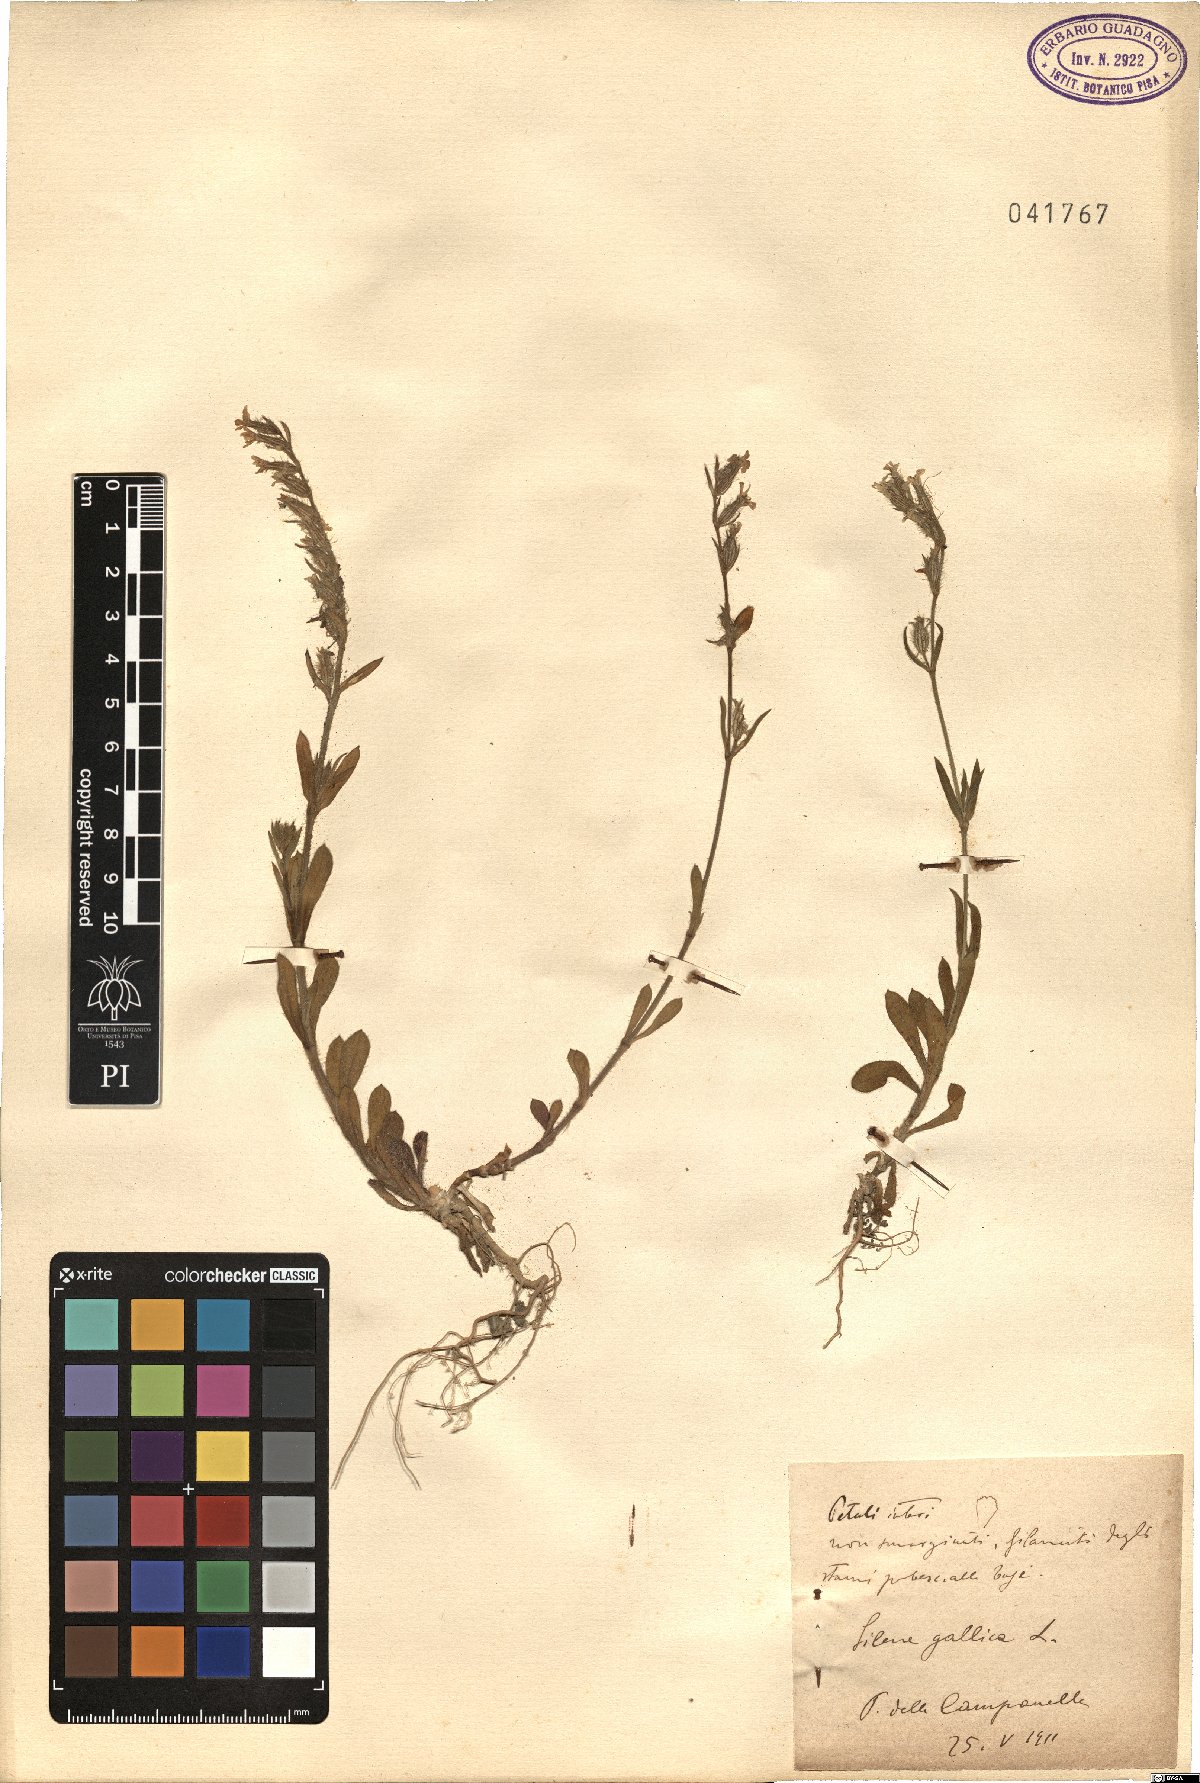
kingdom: Plantae
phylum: Tracheophyta
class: Magnoliopsida
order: Caryophyllales
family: Caryophyllaceae
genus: Silene
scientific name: Silene gallica
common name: Small-flowered catchfly
